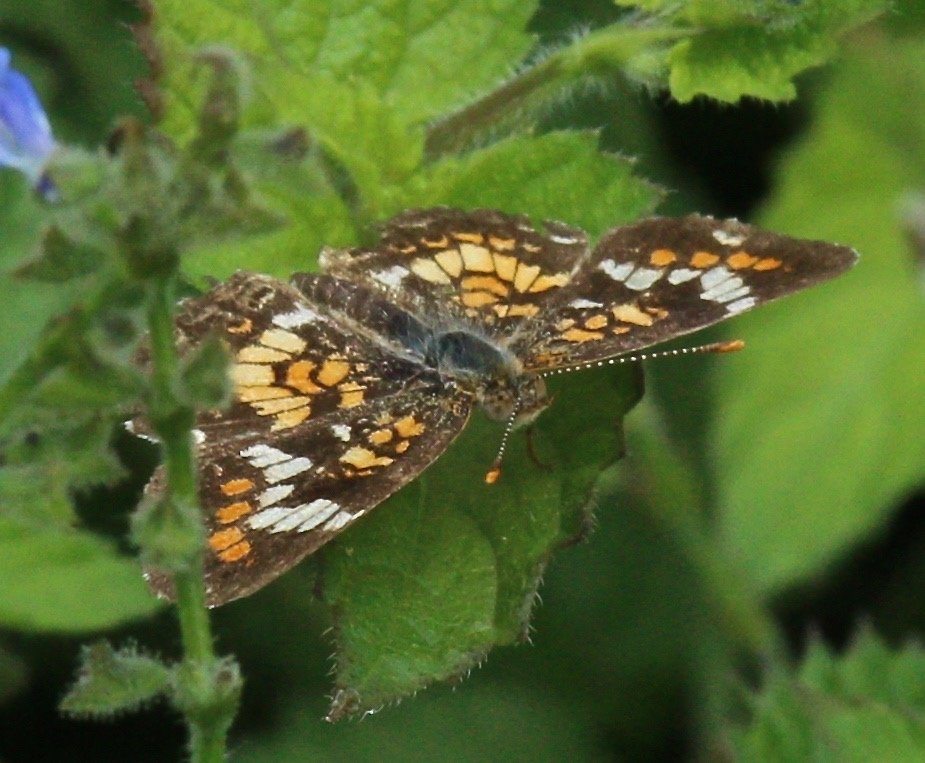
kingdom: Animalia
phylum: Arthropoda
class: Insecta
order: Lepidoptera
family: Nymphalidae
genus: Phyciodes
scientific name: Phyciodes phaon
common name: Phaon Crescent
